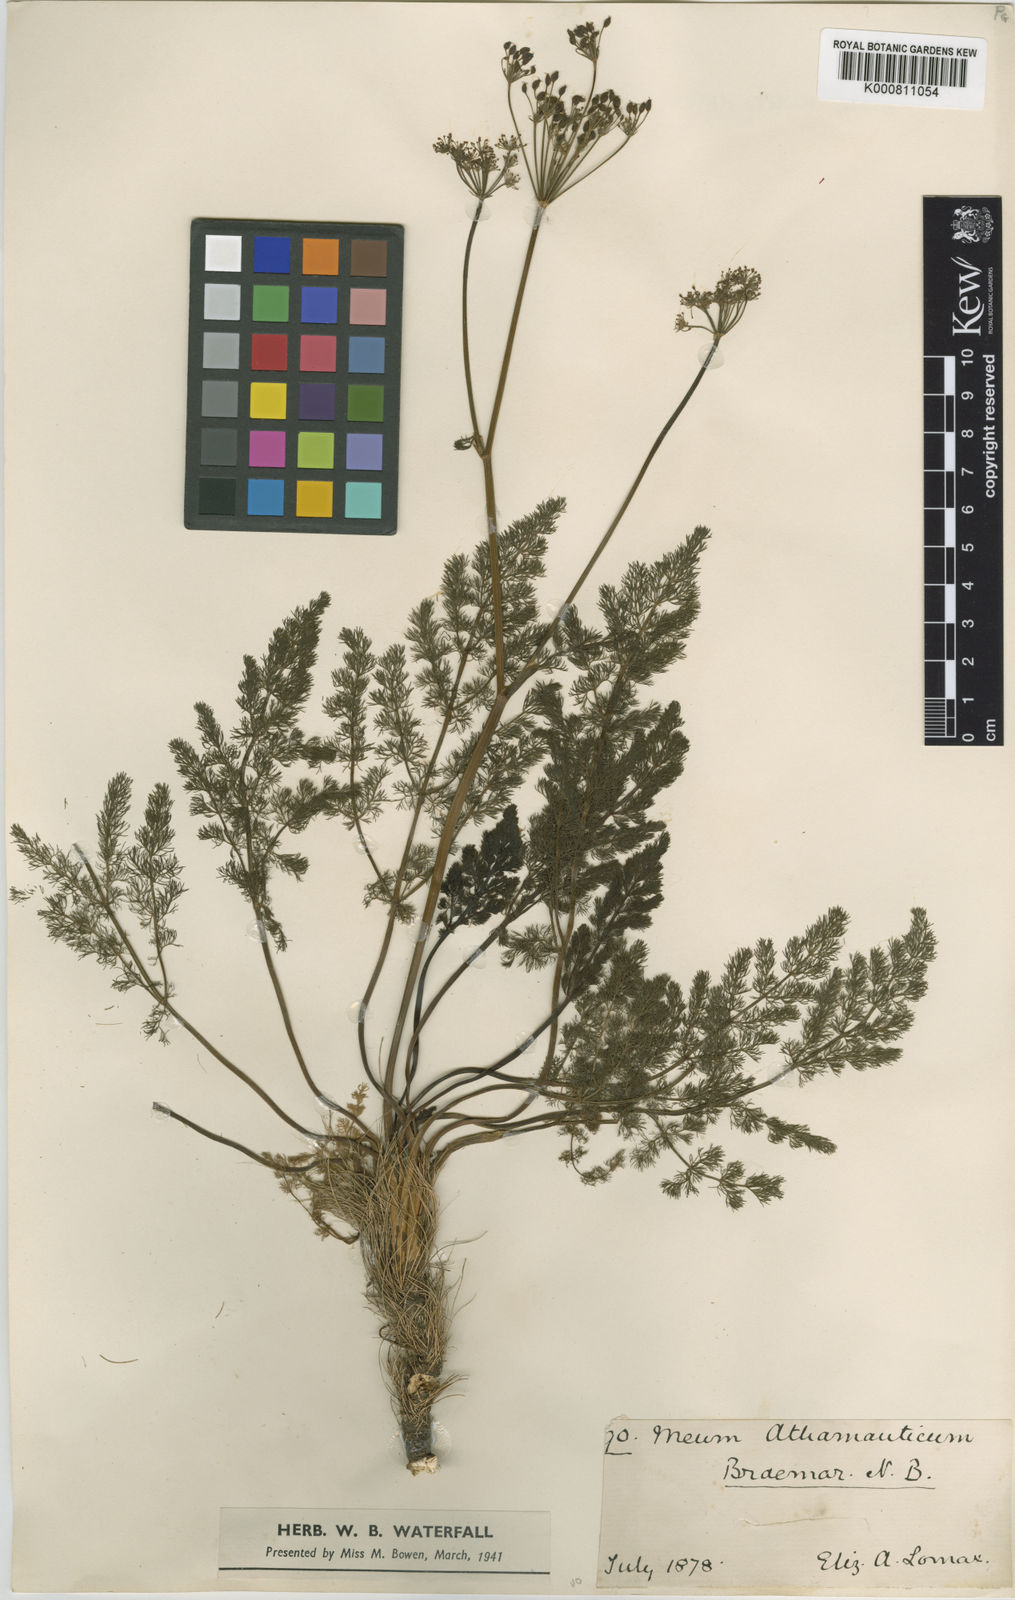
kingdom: Plantae
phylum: Tracheophyta
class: Magnoliopsida
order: Apiales
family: Apiaceae
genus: Meum
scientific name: Meum athamanticum
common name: Spignel
